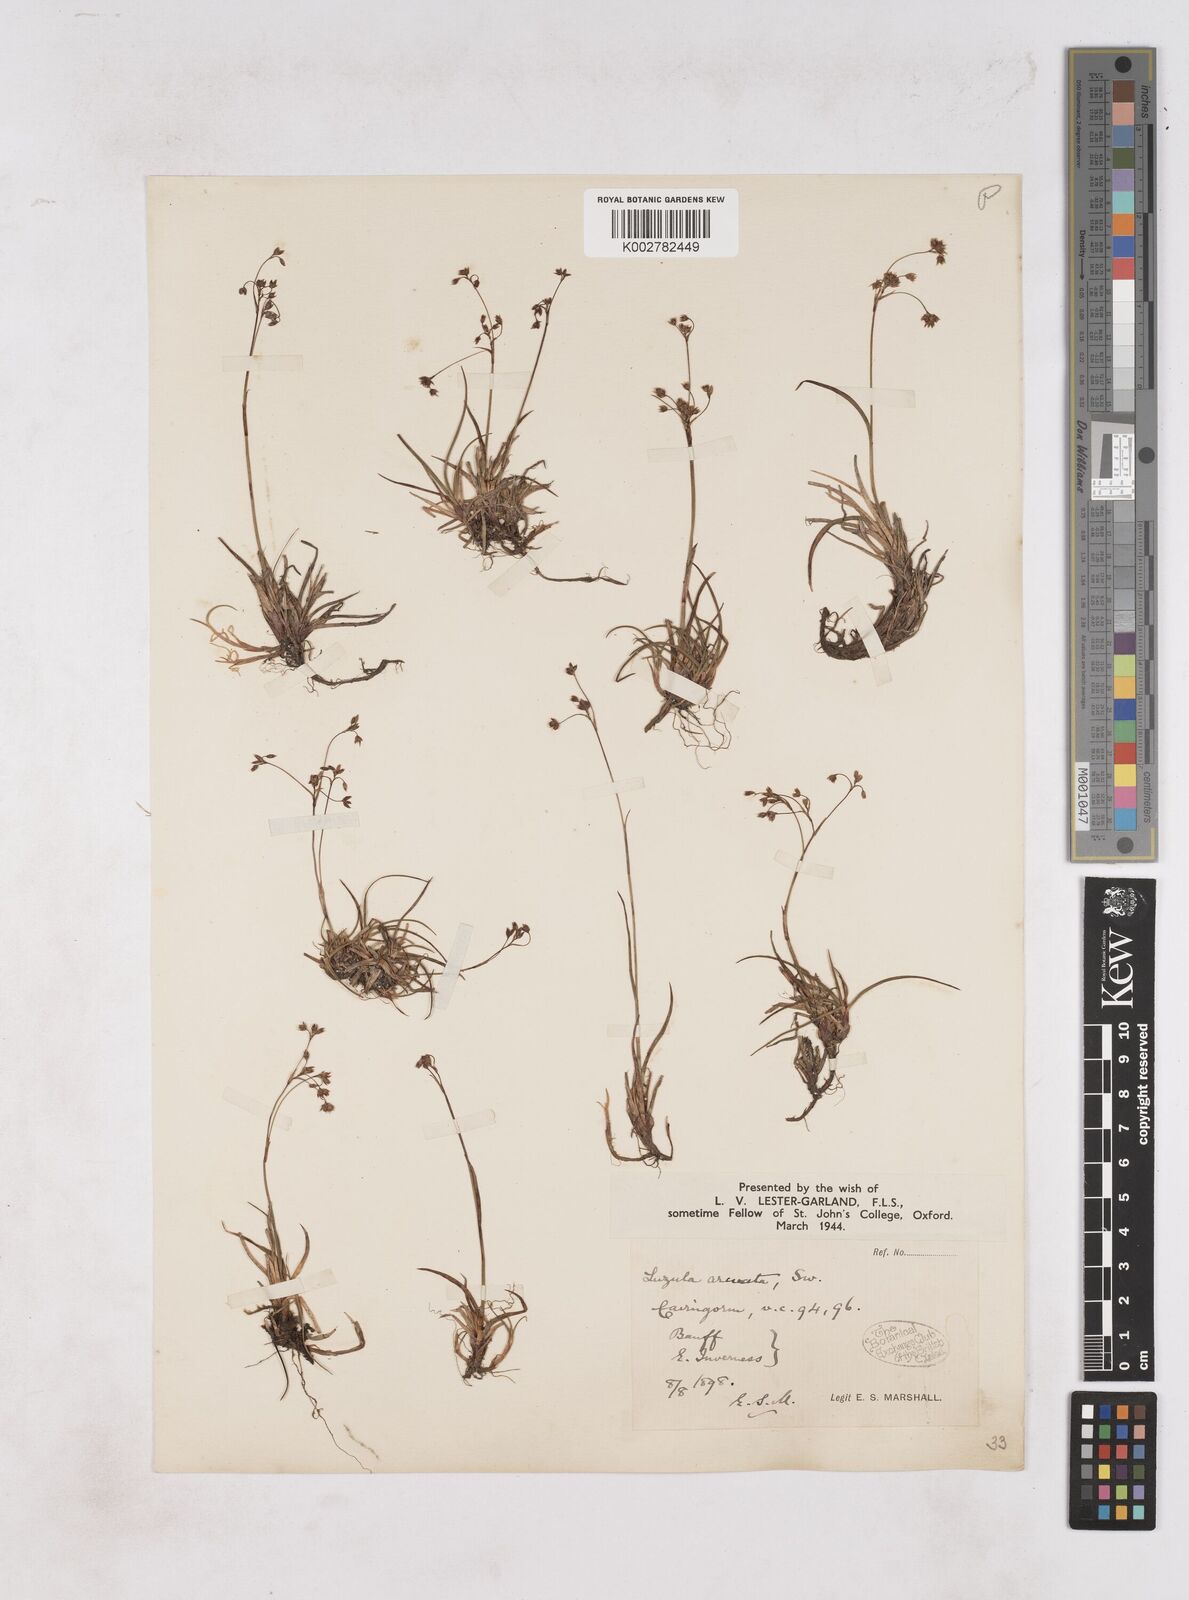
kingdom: Plantae
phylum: Tracheophyta
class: Liliopsida
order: Poales
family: Juncaceae
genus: Luzula
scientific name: Luzula arcuata
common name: Curved wood-rush
